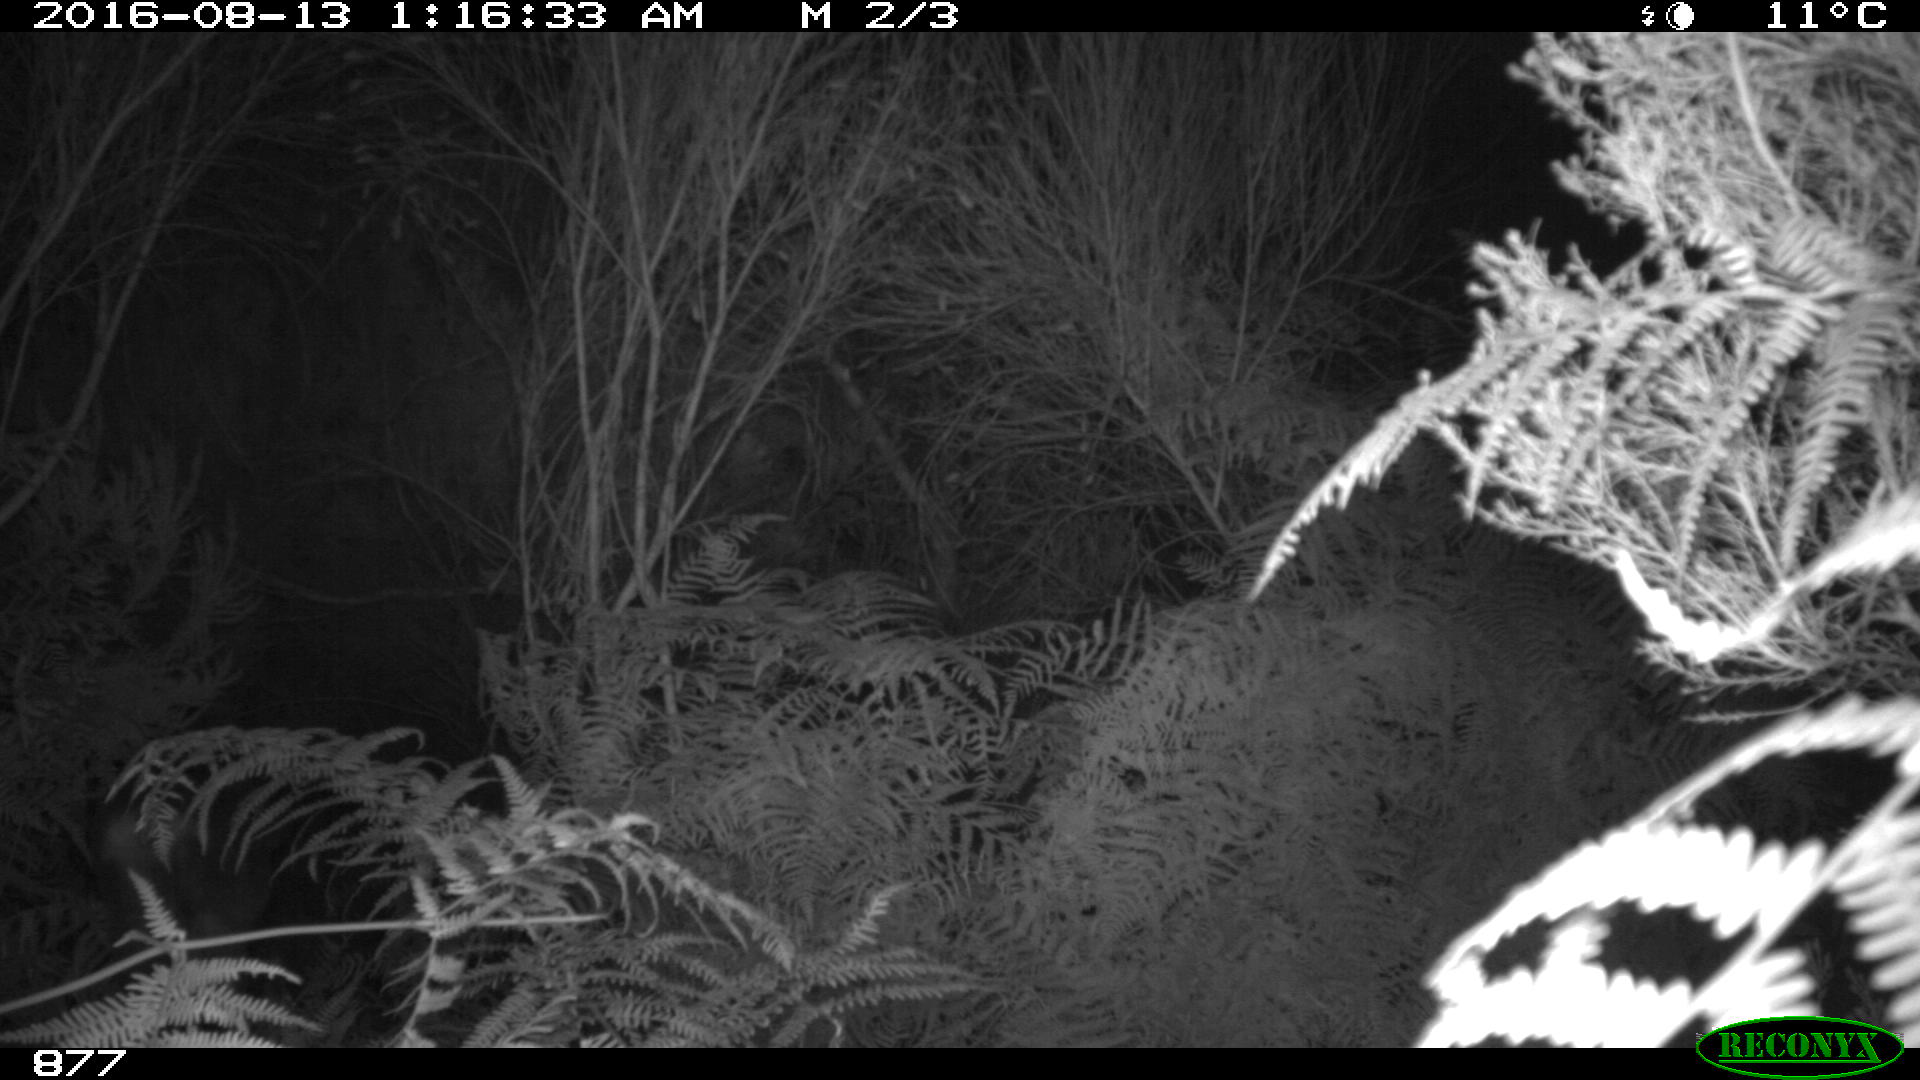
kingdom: Animalia
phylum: Chordata
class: Mammalia
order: Artiodactyla
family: Cervidae
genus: Capreolus
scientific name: Capreolus capreolus
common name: Western roe deer
